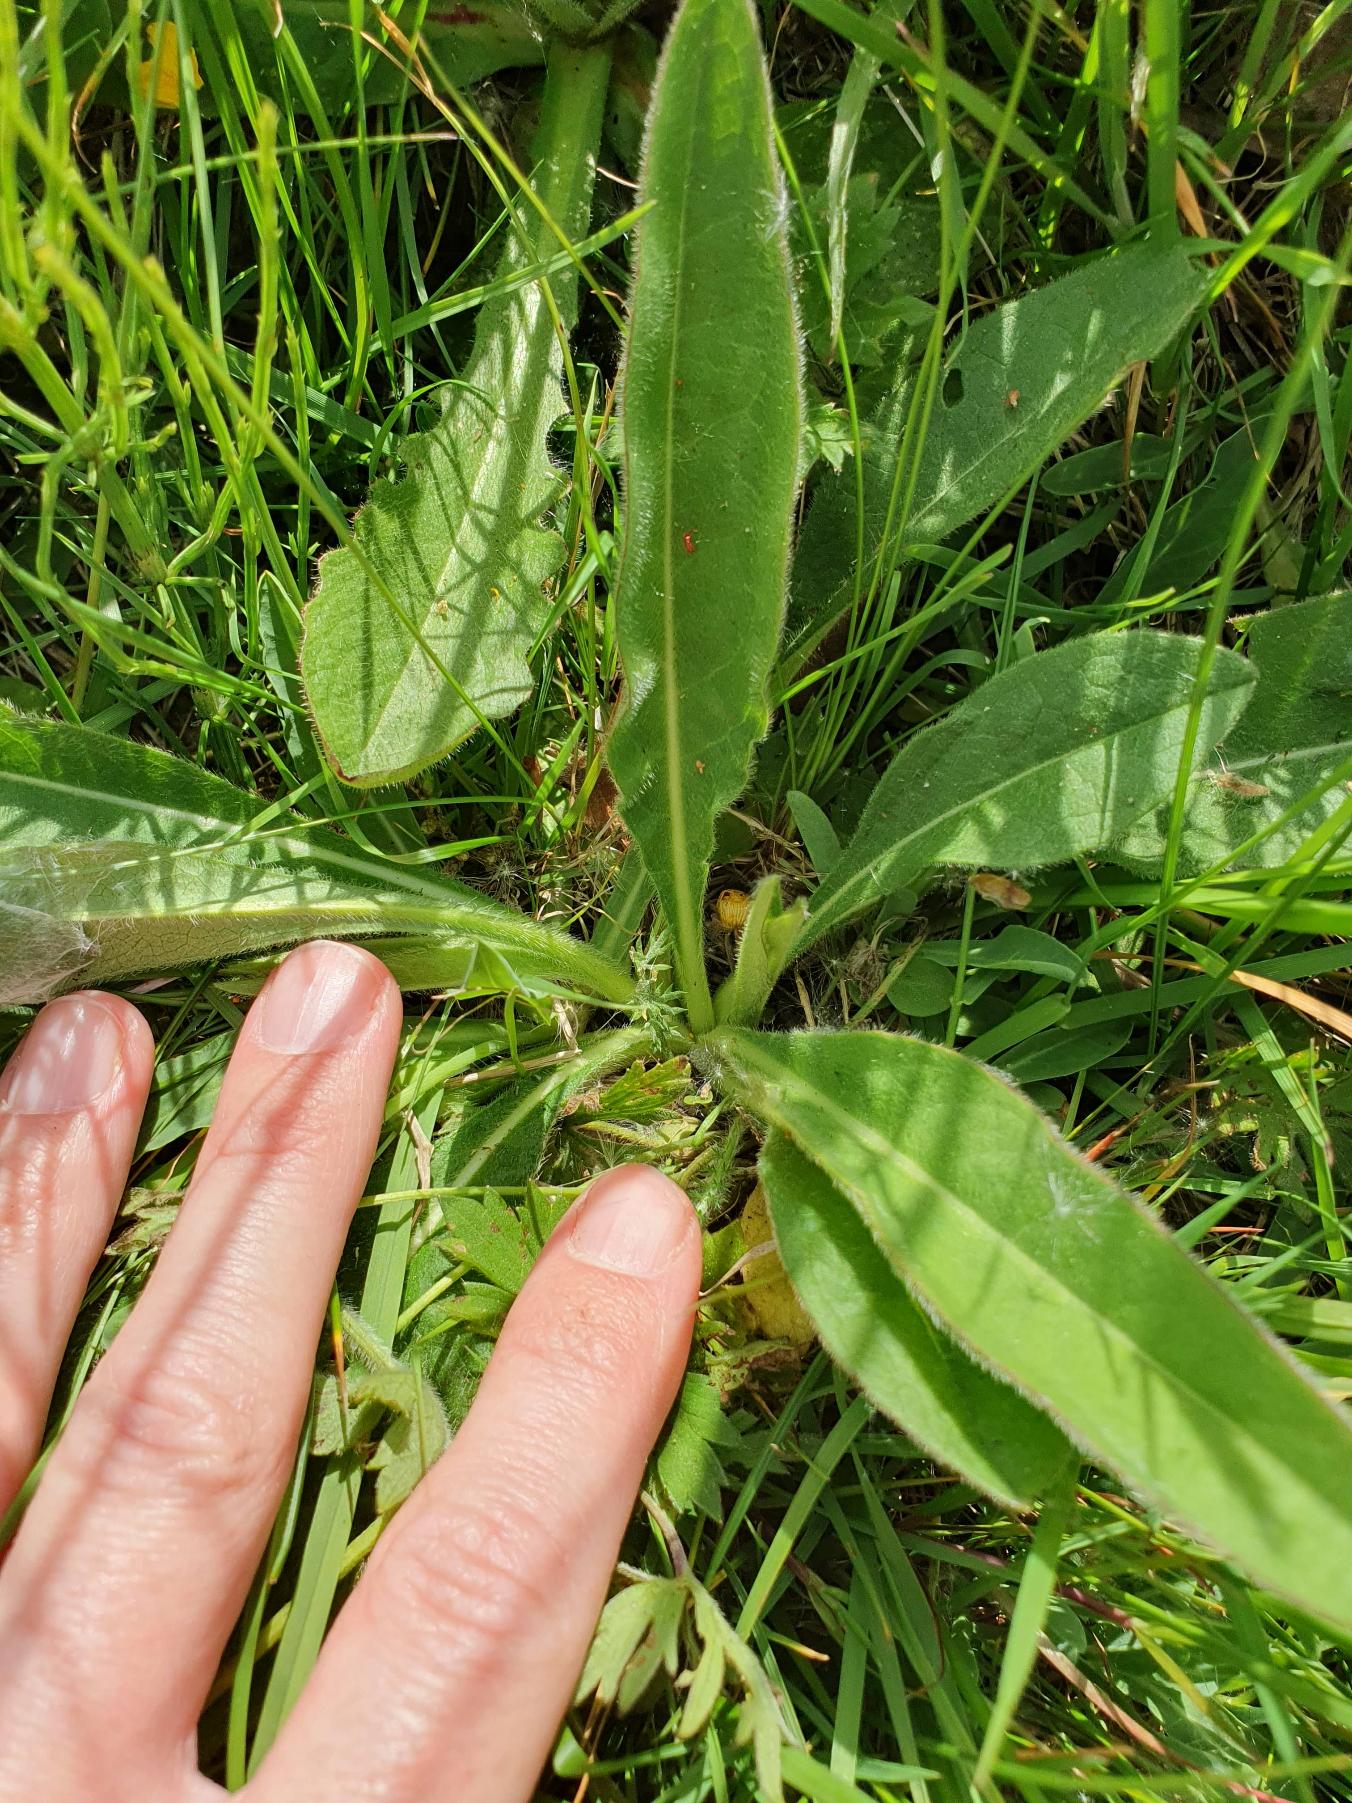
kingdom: Plantae
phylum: Tracheophyta
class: Magnoliopsida
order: Dipsacales
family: Caprifoliaceae
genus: Succisa
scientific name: Succisa pratensis
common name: Djævelsbid
